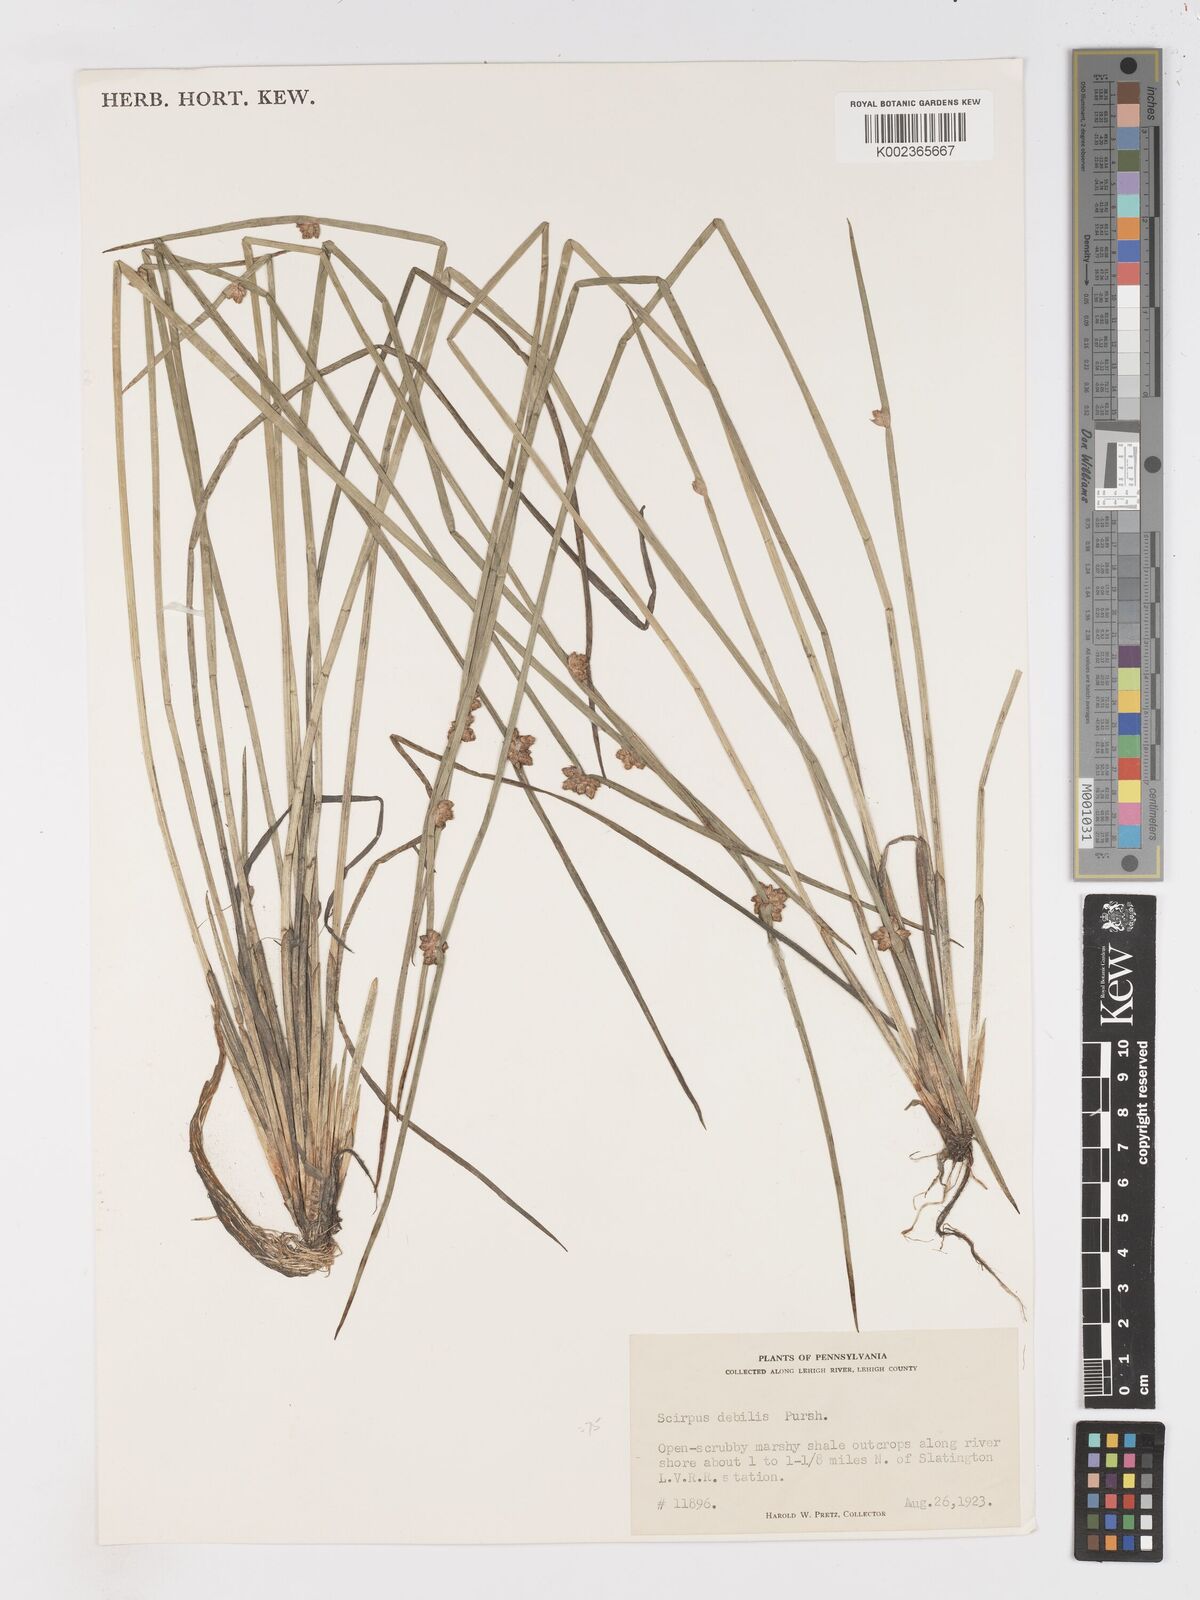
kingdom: Plantae
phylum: Tracheophyta
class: Liliopsida
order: Poales
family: Cyperaceae
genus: Schoenoplectiella
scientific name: Schoenoplectiella purshiana
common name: Weak-stalked bulrush
